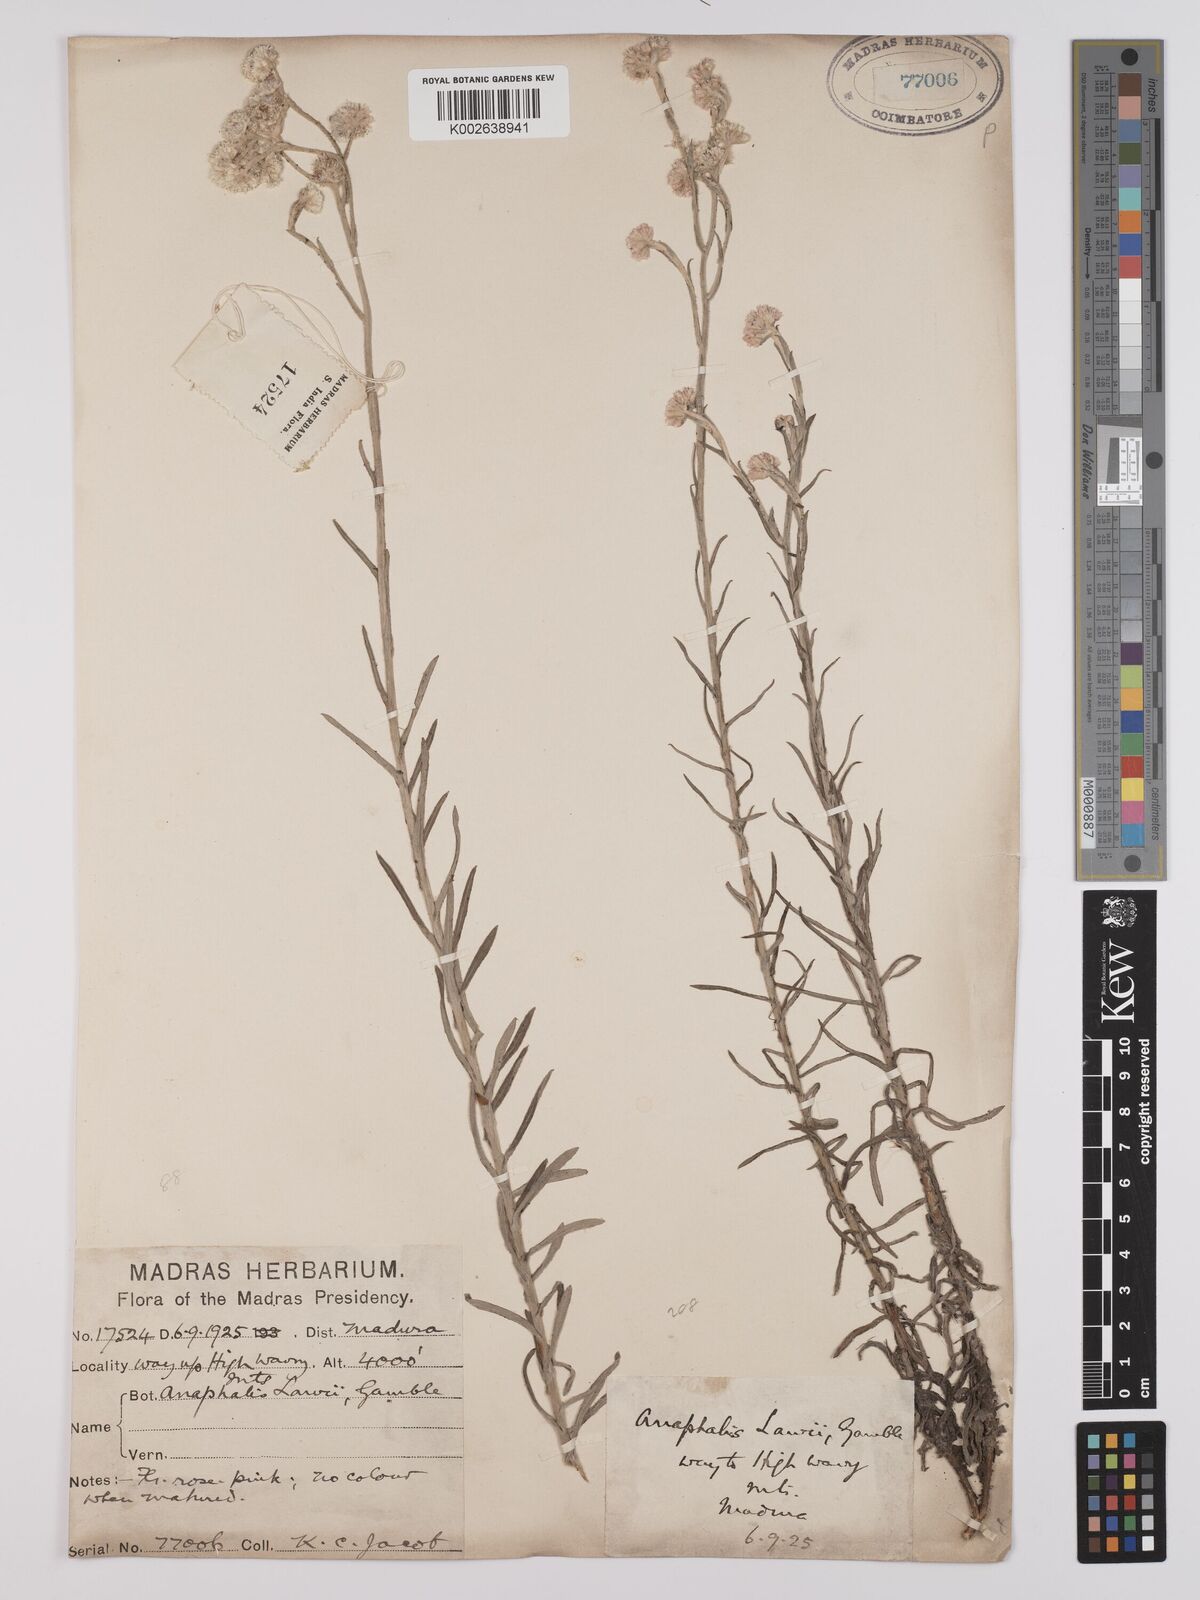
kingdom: Plantae
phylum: Tracheophyta
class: Magnoliopsida
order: Asterales
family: Asteraceae
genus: Anaphalis
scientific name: Anaphalis lawii
